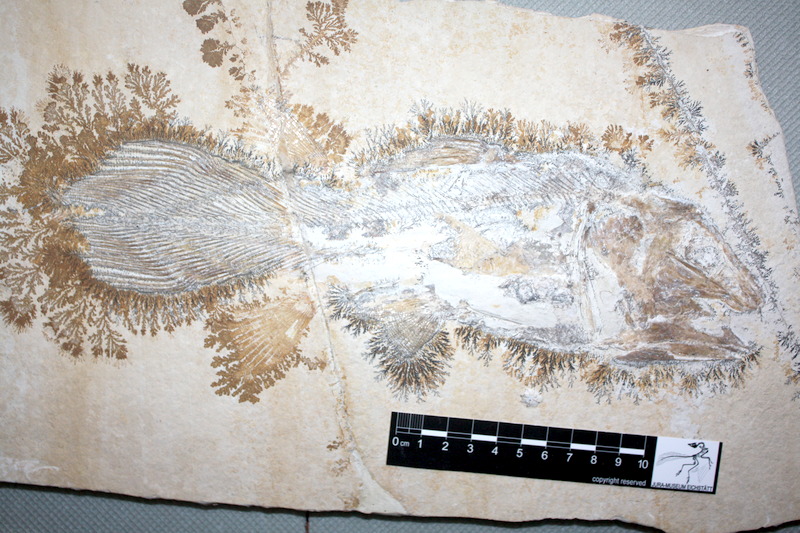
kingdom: Animalia
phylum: Chordata
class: Coelacanthi
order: Coelacanthiformes
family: Mawsoniidae
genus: Libys
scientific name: Libys
